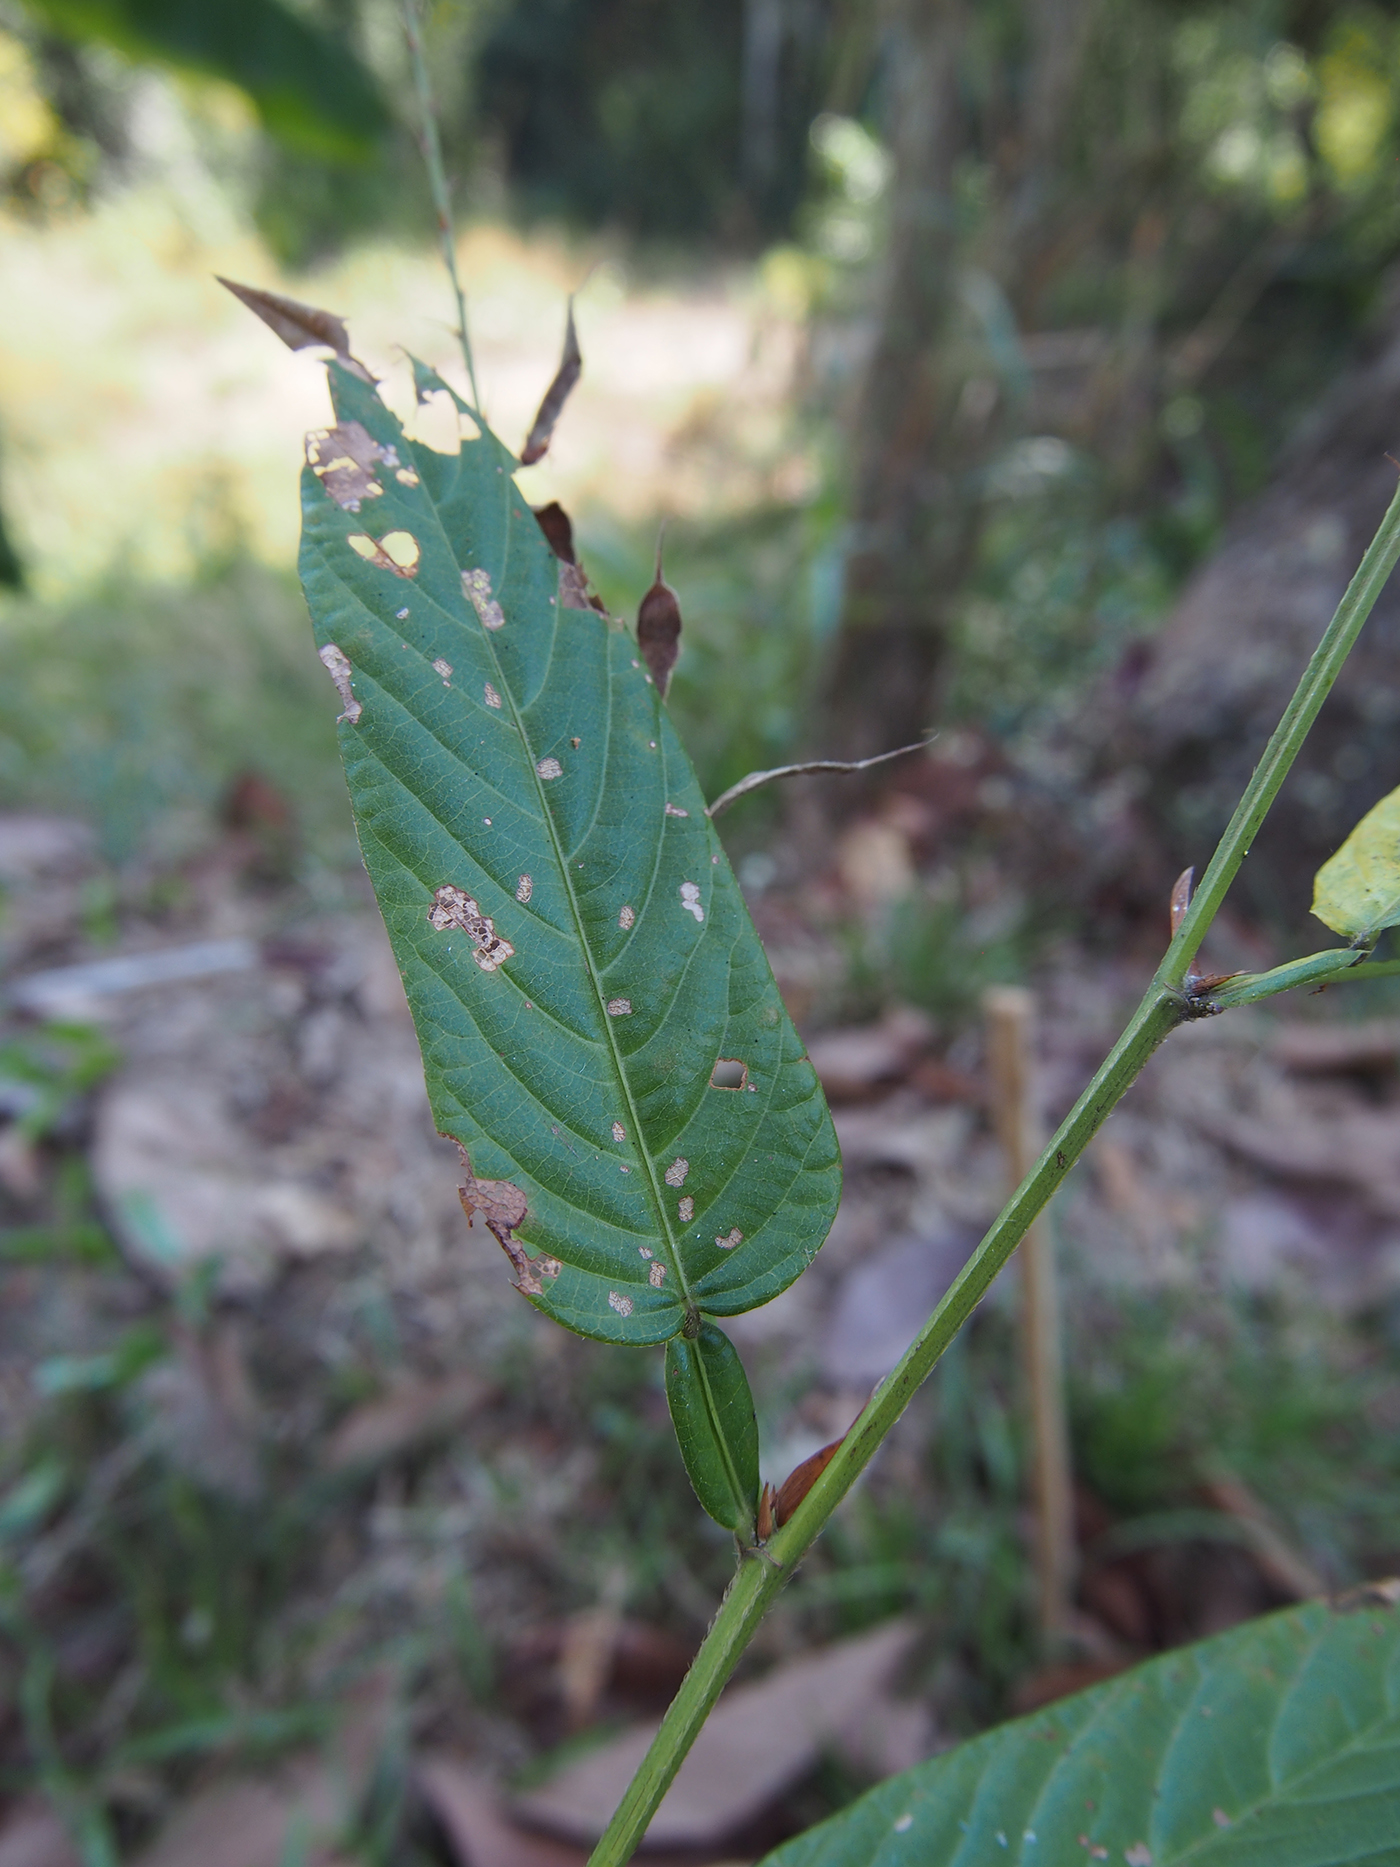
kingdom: Plantae
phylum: Tracheophyta
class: Magnoliopsida
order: Fabales
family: Fabaceae
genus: Tadehagi
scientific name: Tadehagi triquetrum
